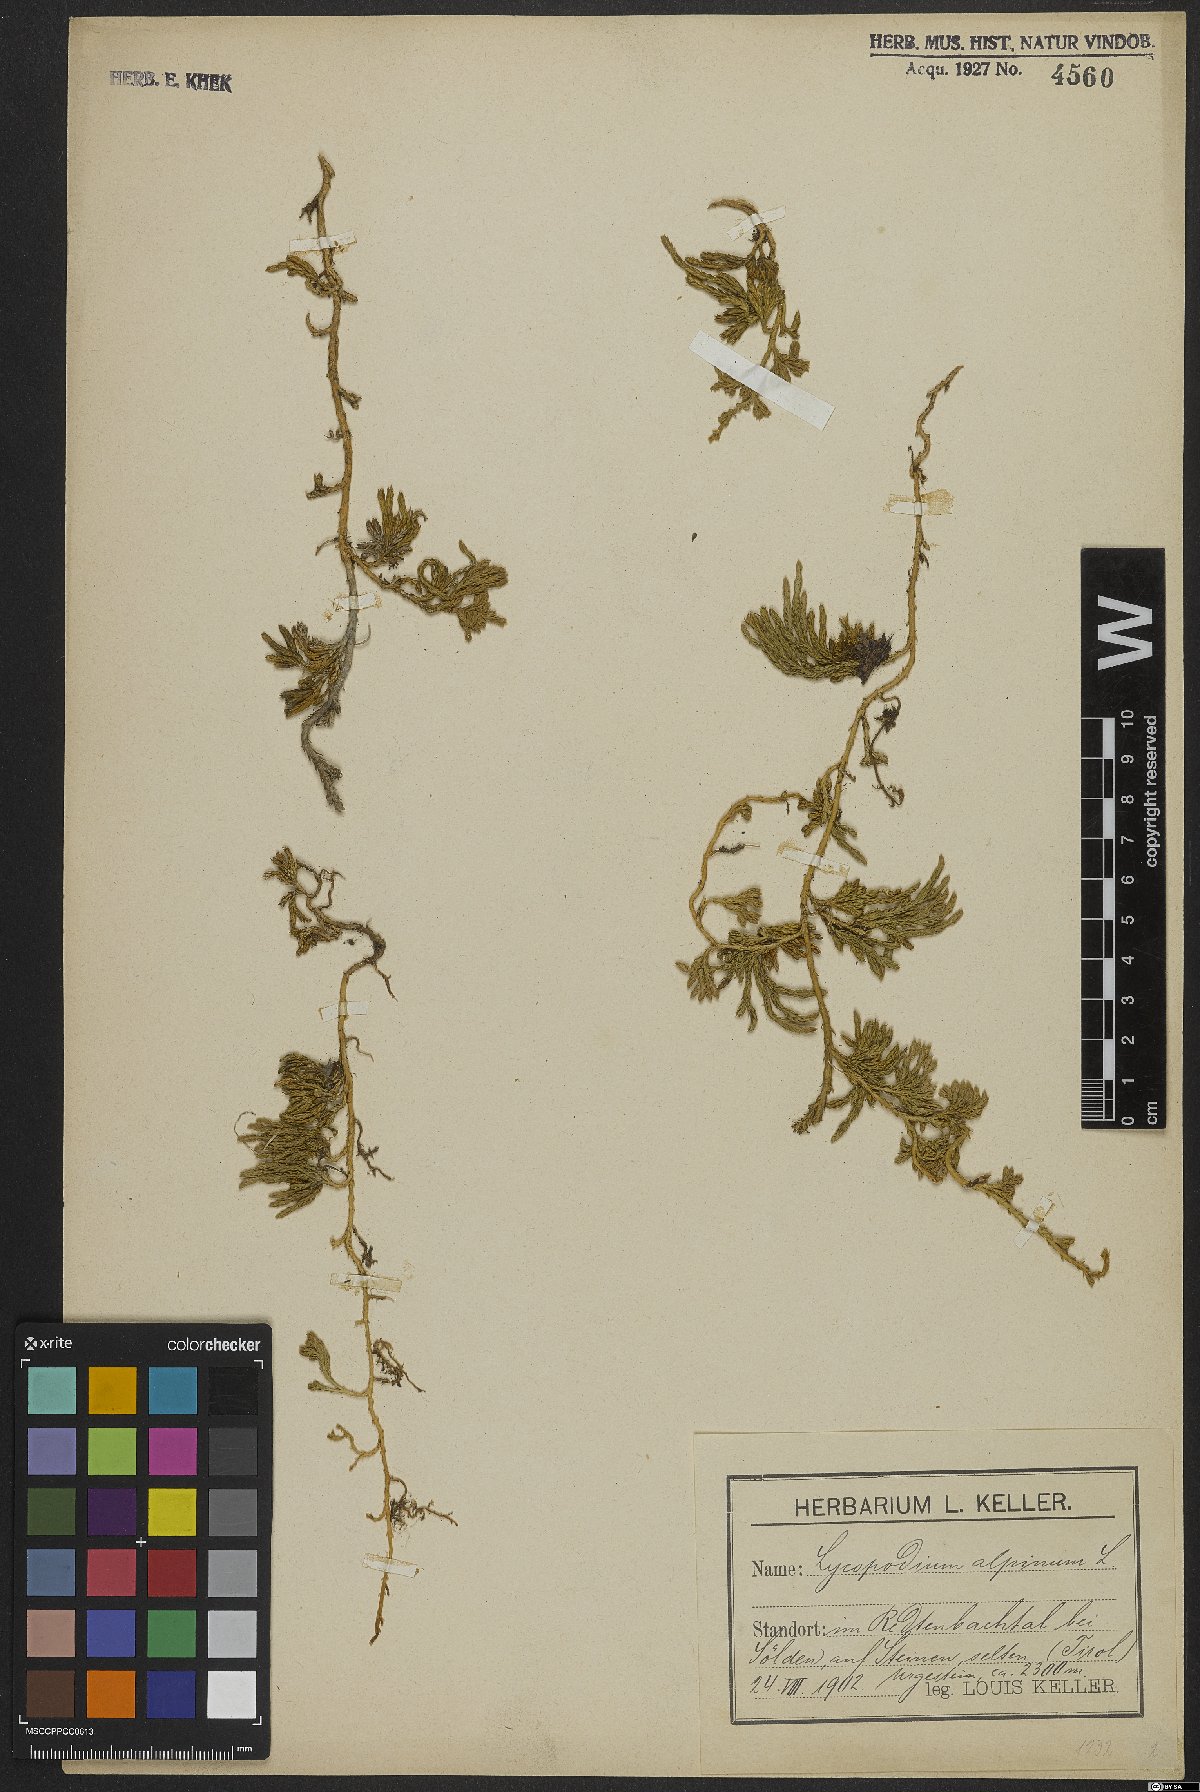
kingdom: Plantae
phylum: Tracheophyta
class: Lycopodiopsida
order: Lycopodiales
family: Lycopodiaceae
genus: Diphasiastrum
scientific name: Diphasiastrum alpinum
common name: Alpine clubmoss
